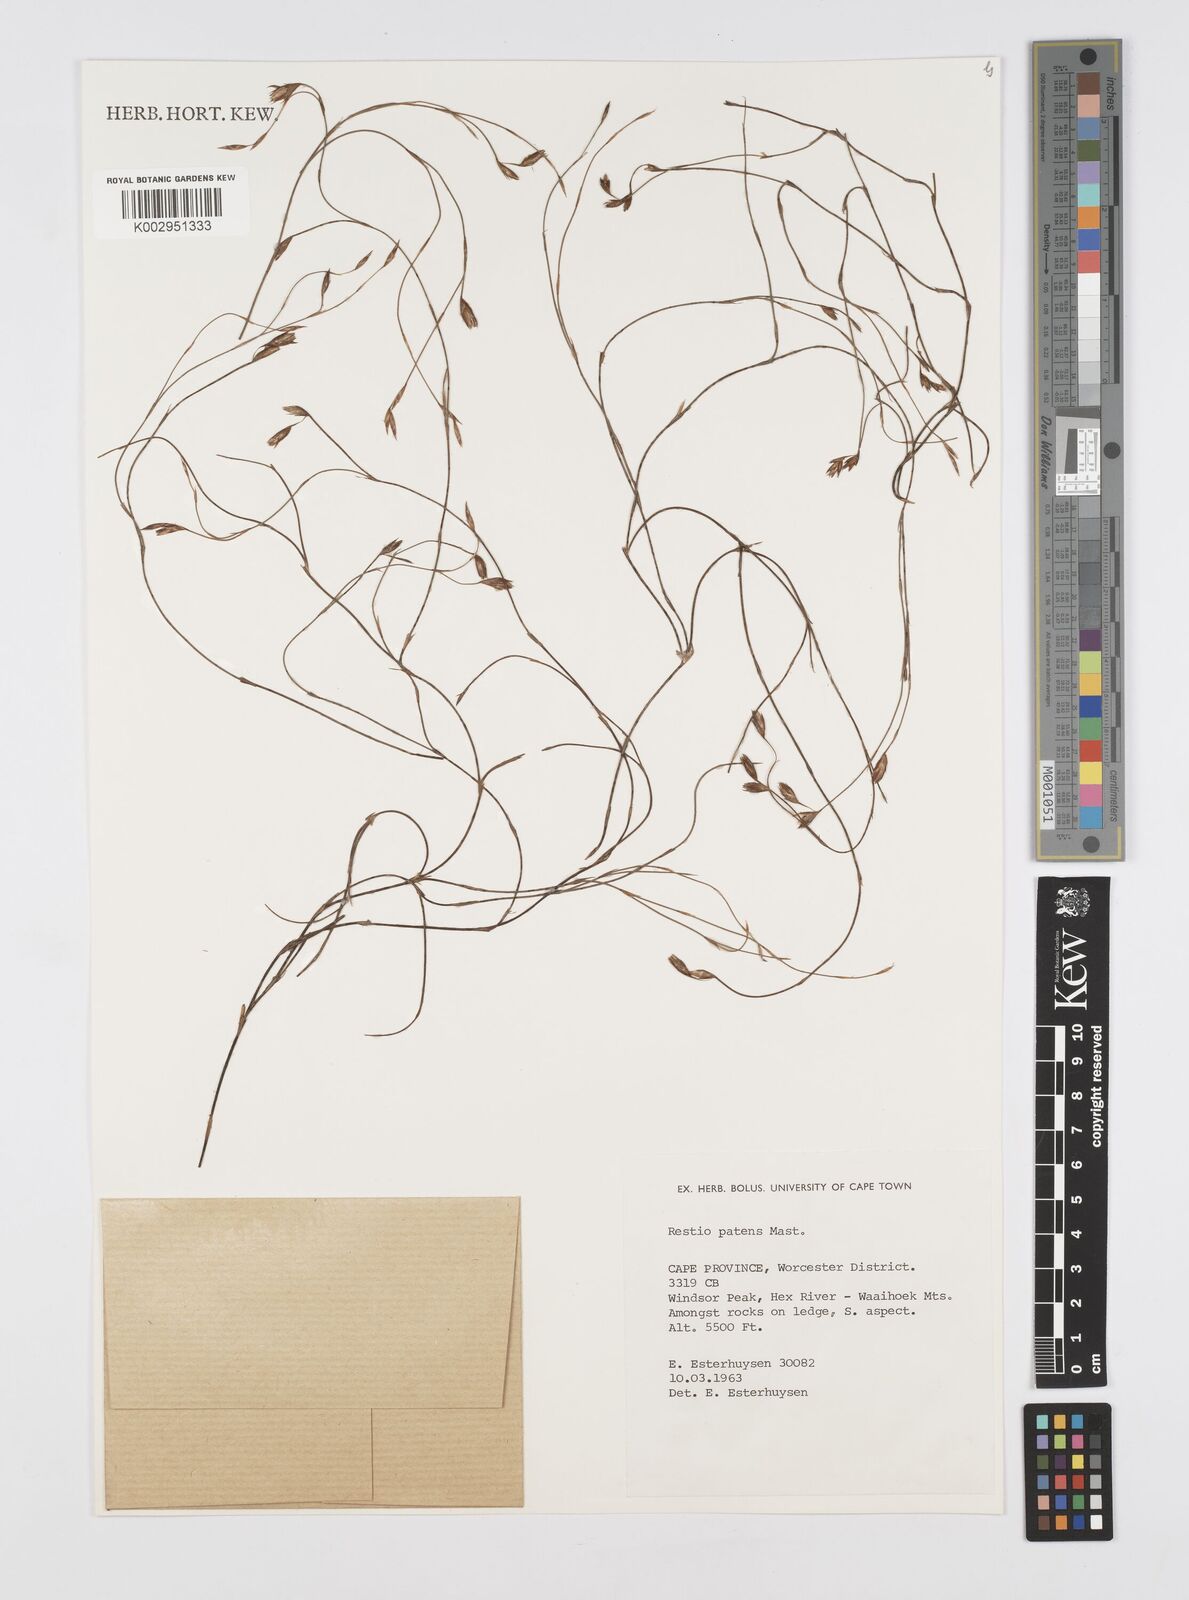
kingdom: Plantae
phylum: Tracheophyta
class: Liliopsida
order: Poales
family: Restionaceae
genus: Restio
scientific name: Restio patens
